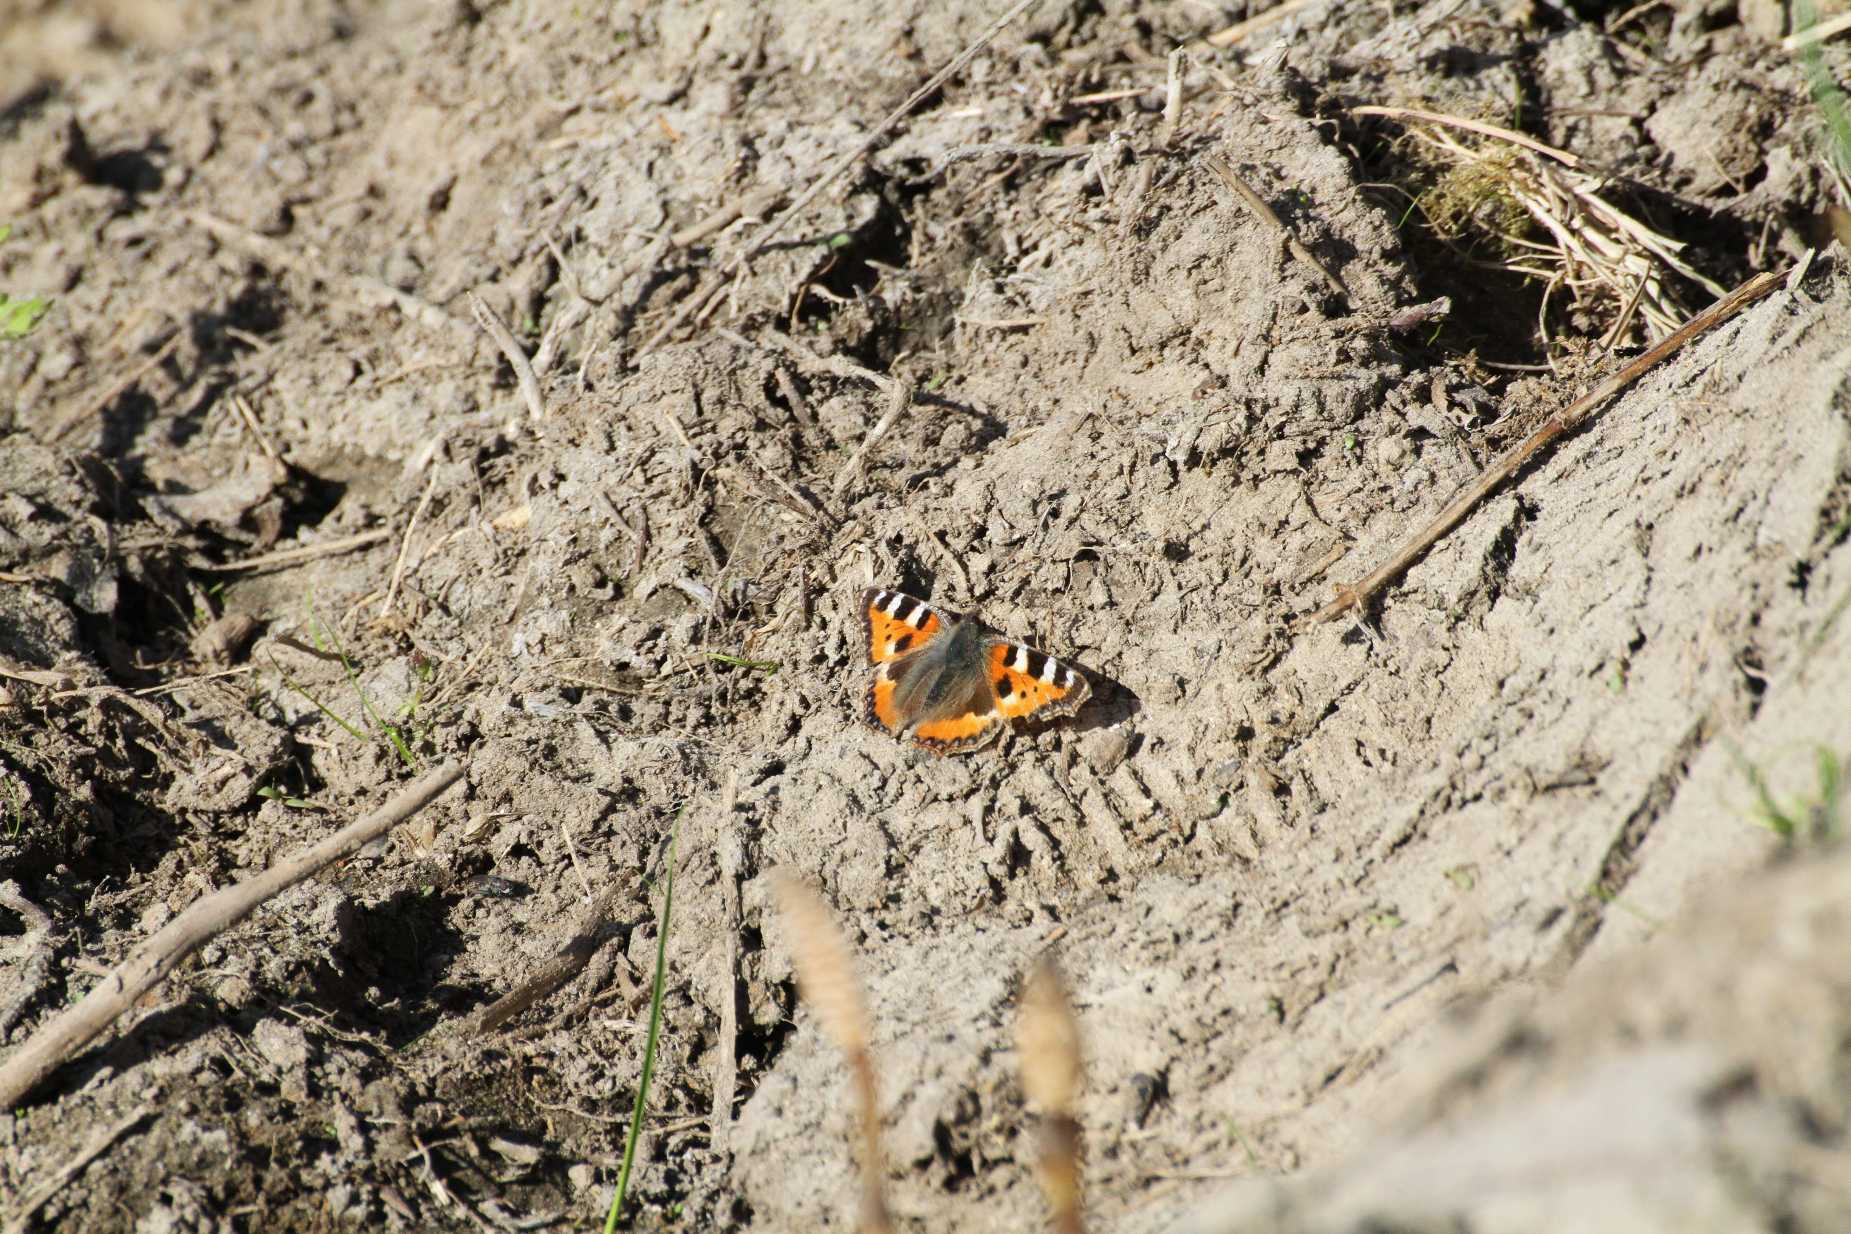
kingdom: Animalia
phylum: Arthropoda
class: Insecta
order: Lepidoptera
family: Nymphalidae
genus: Aglais
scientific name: Aglais urticae
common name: Nældens takvinge
